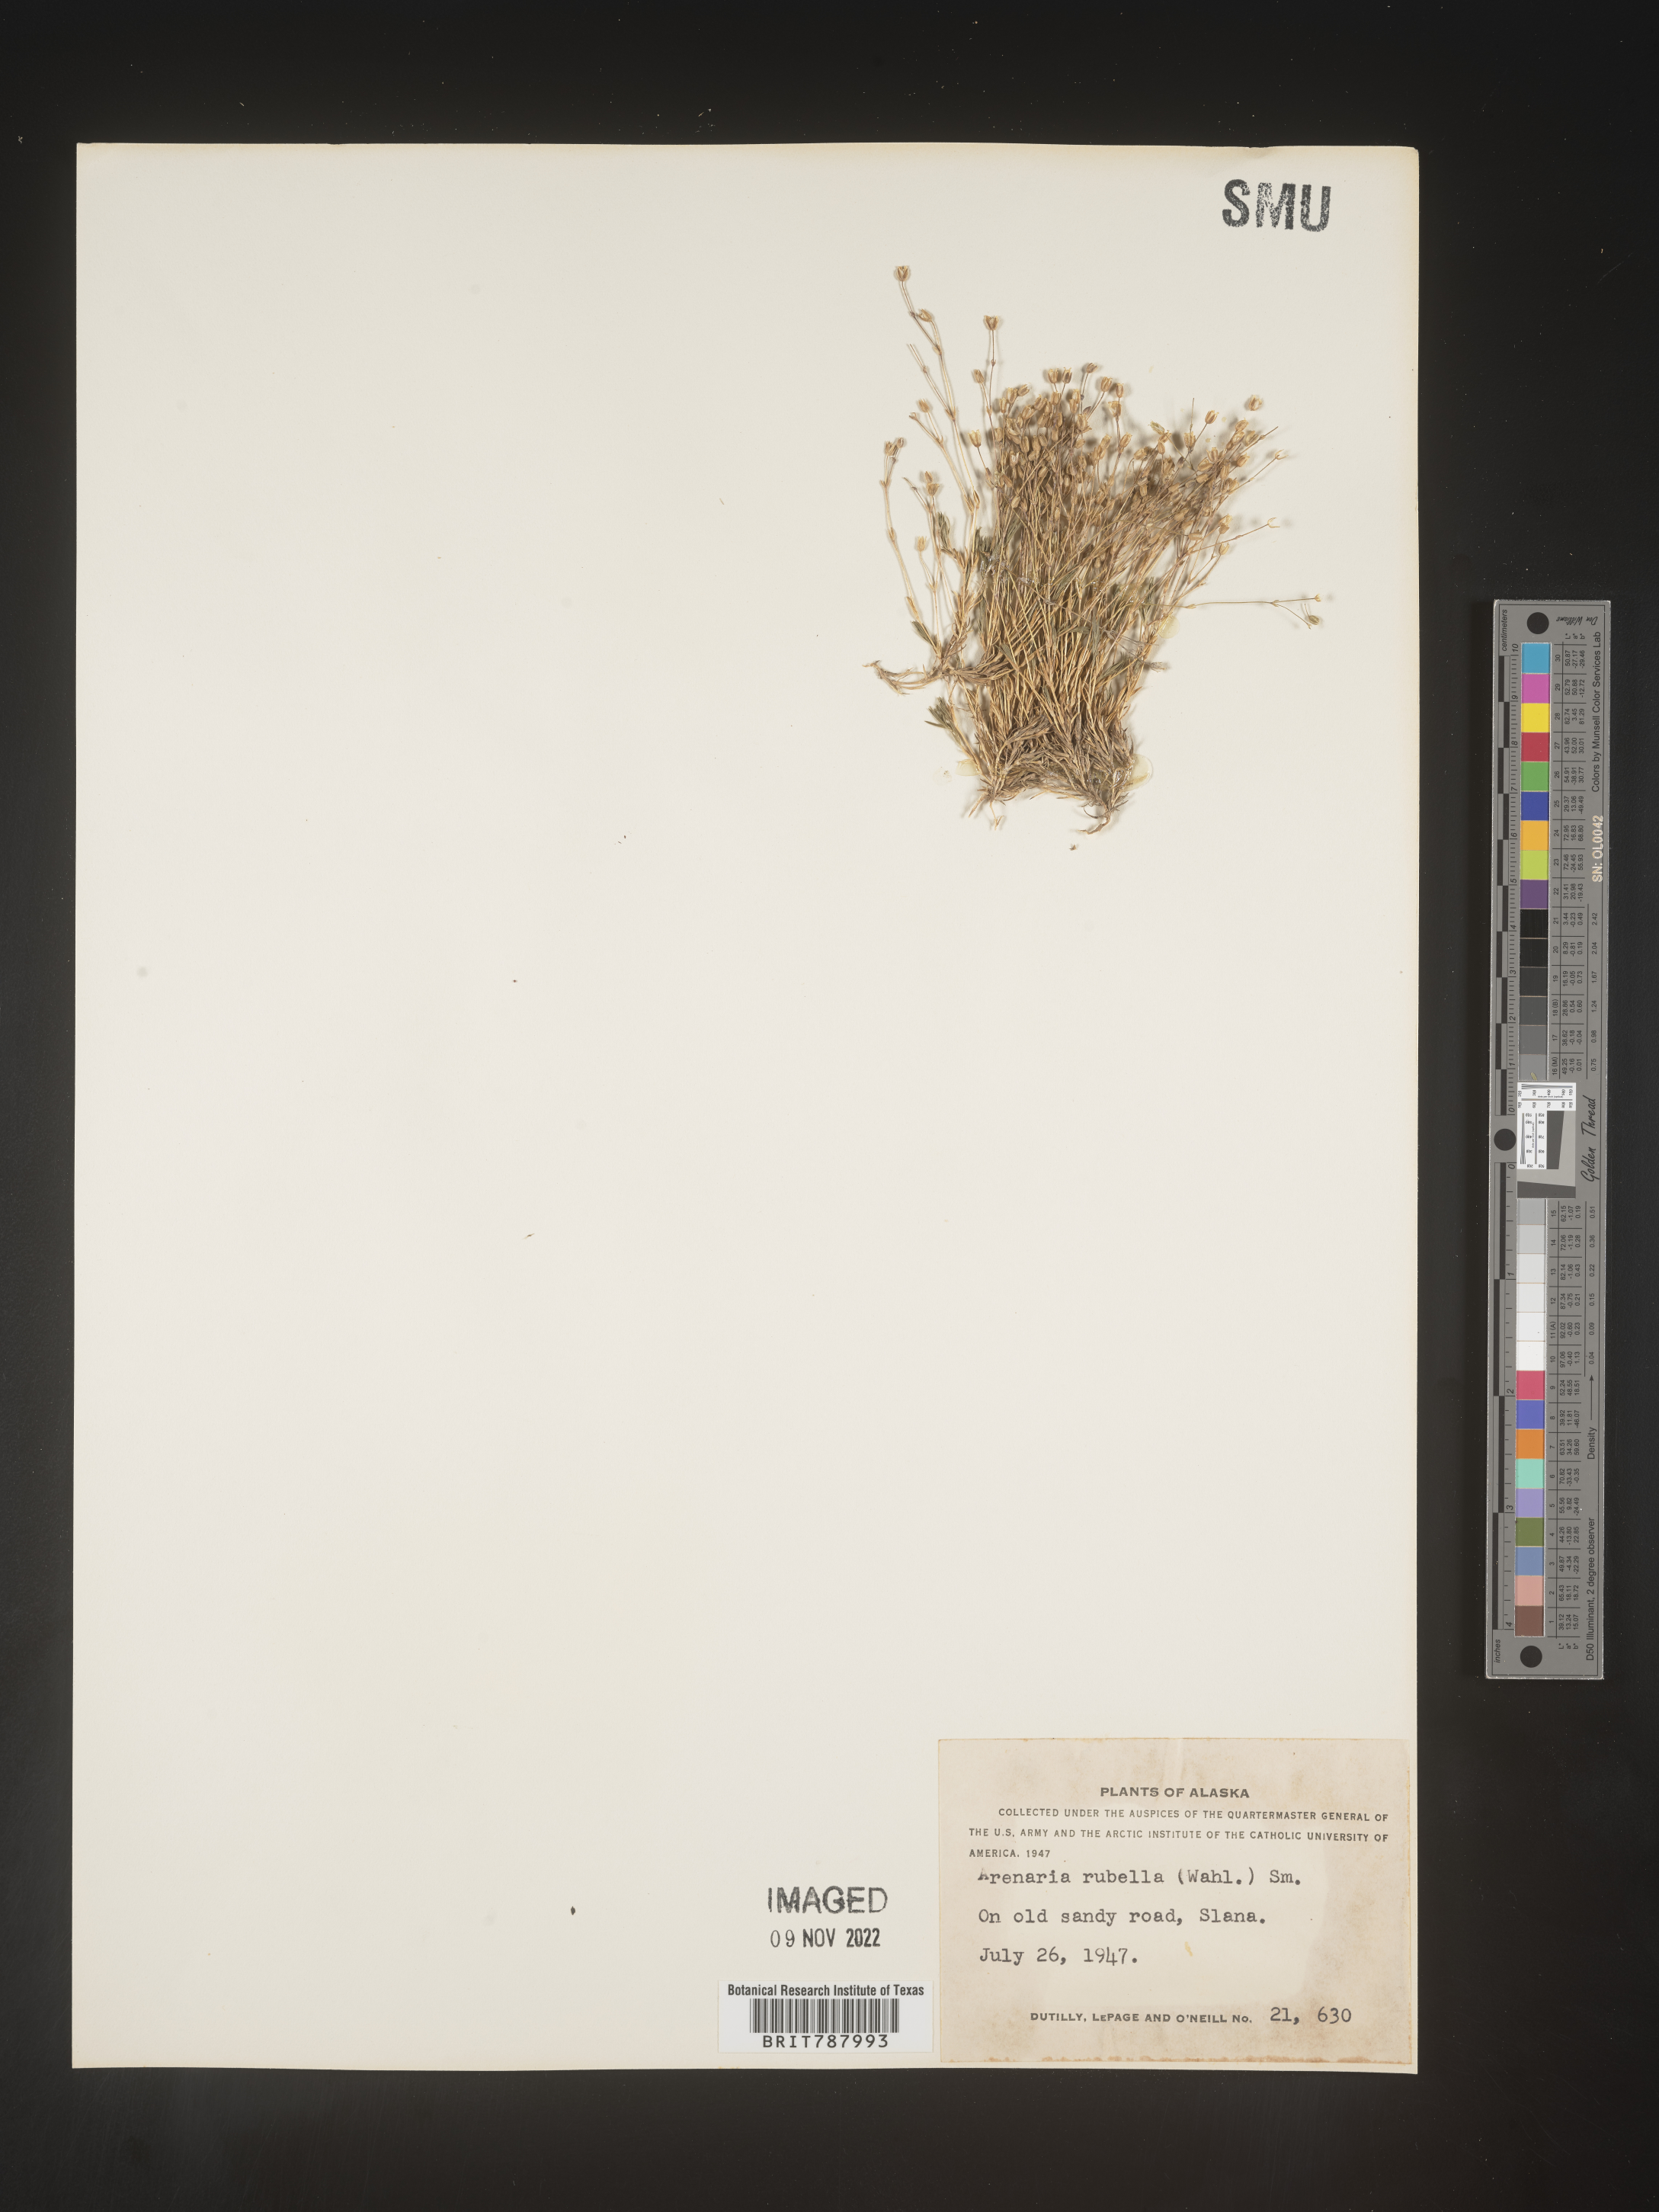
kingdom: Plantae
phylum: Tracheophyta
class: Magnoliopsida
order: Caryophyllales
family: Caryophyllaceae
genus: Arenaria
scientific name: Arenaria
